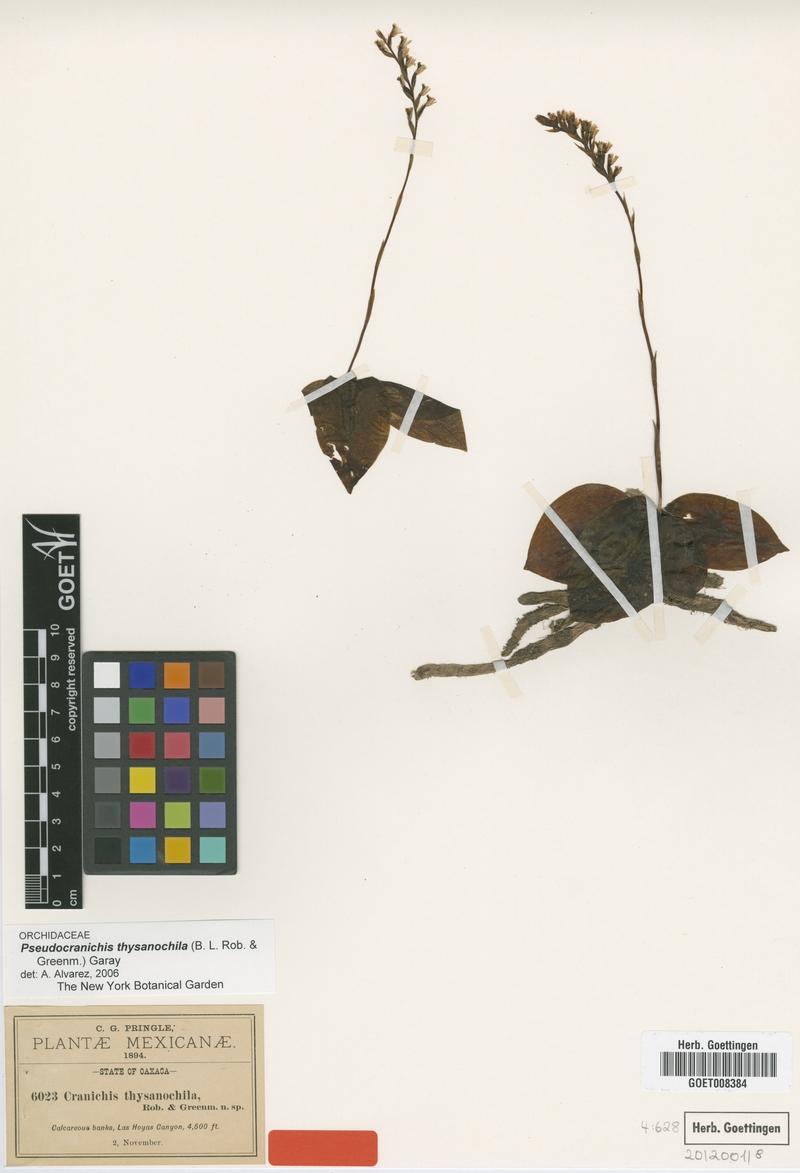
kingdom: Plantae
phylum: Tracheophyta
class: Liliopsida
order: Asparagales
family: Orchidaceae
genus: Galeoglossum
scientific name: Galeoglossum thysanochilum
